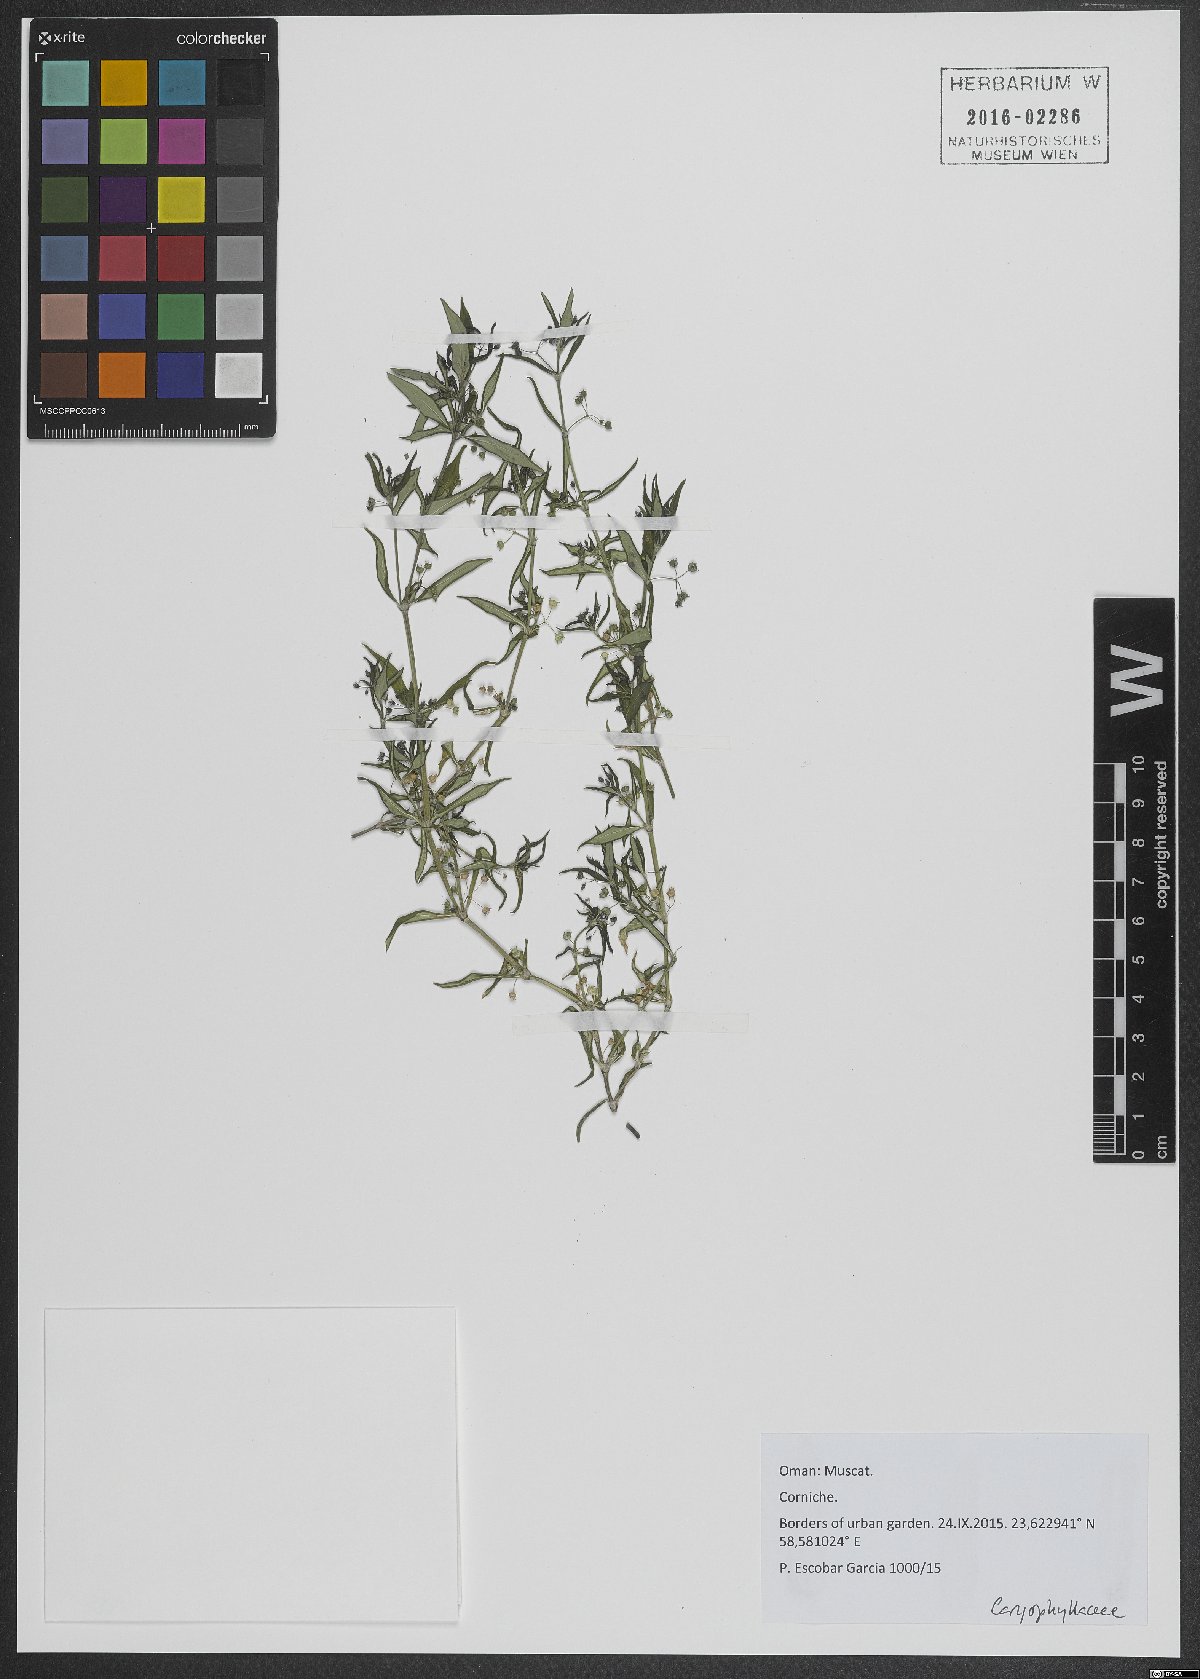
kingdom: Plantae
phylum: Tracheophyta
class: Magnoliopsida
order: Caryophyllales
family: Caryophyllaceae
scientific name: Caryophyllaceae
